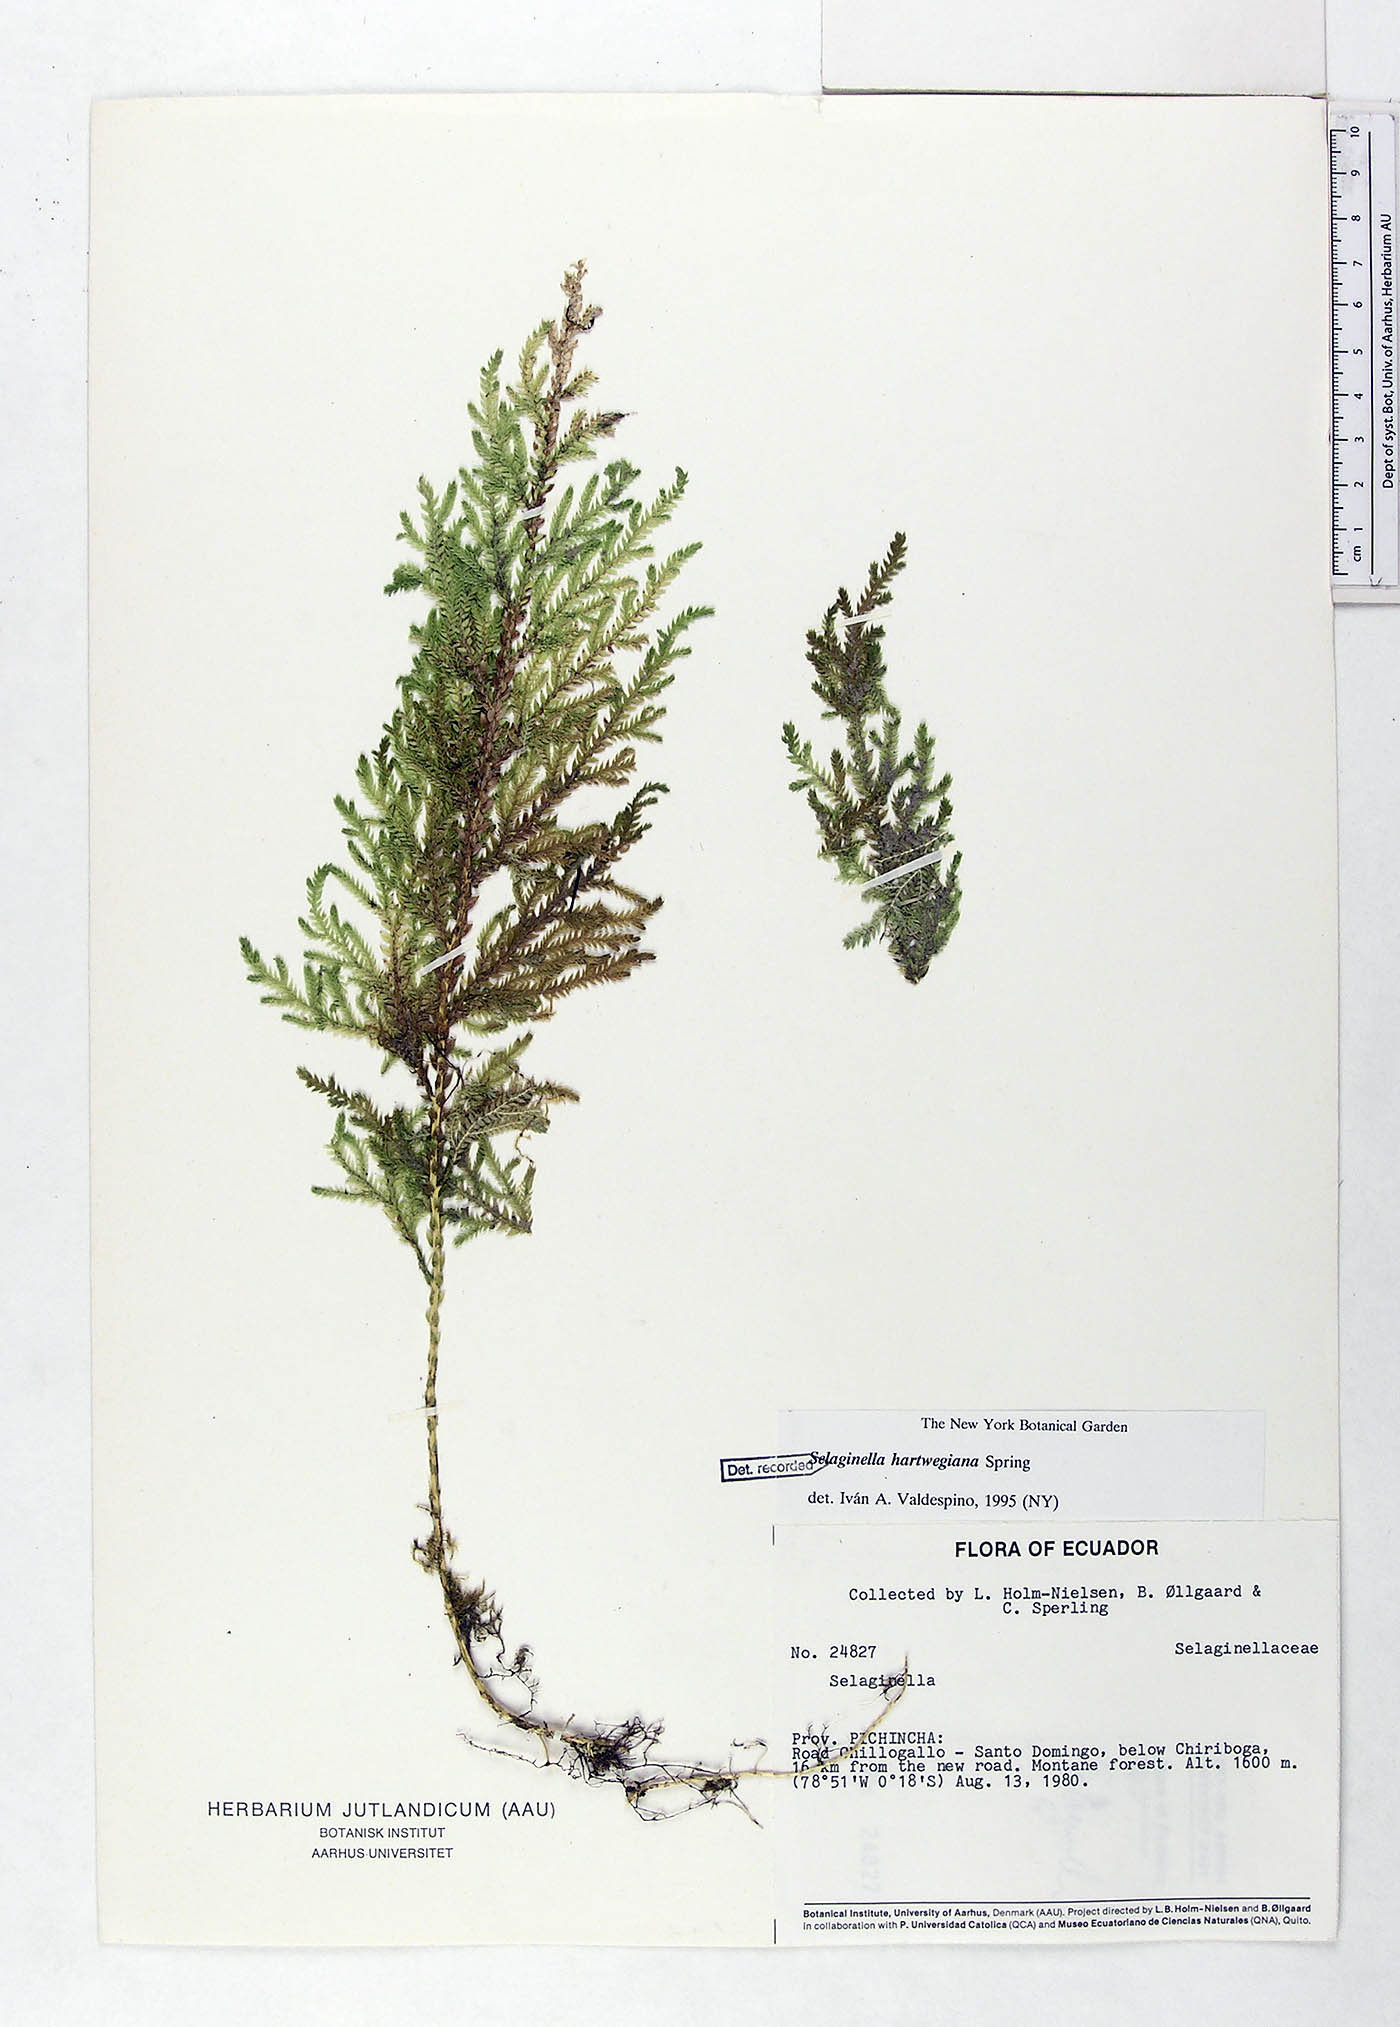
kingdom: Plantae
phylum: Tracheophyta
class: Lycopodiopsida
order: Selaginellales
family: Selaginellaceae
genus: Selaginella
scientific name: Selaginella hartwegiana
